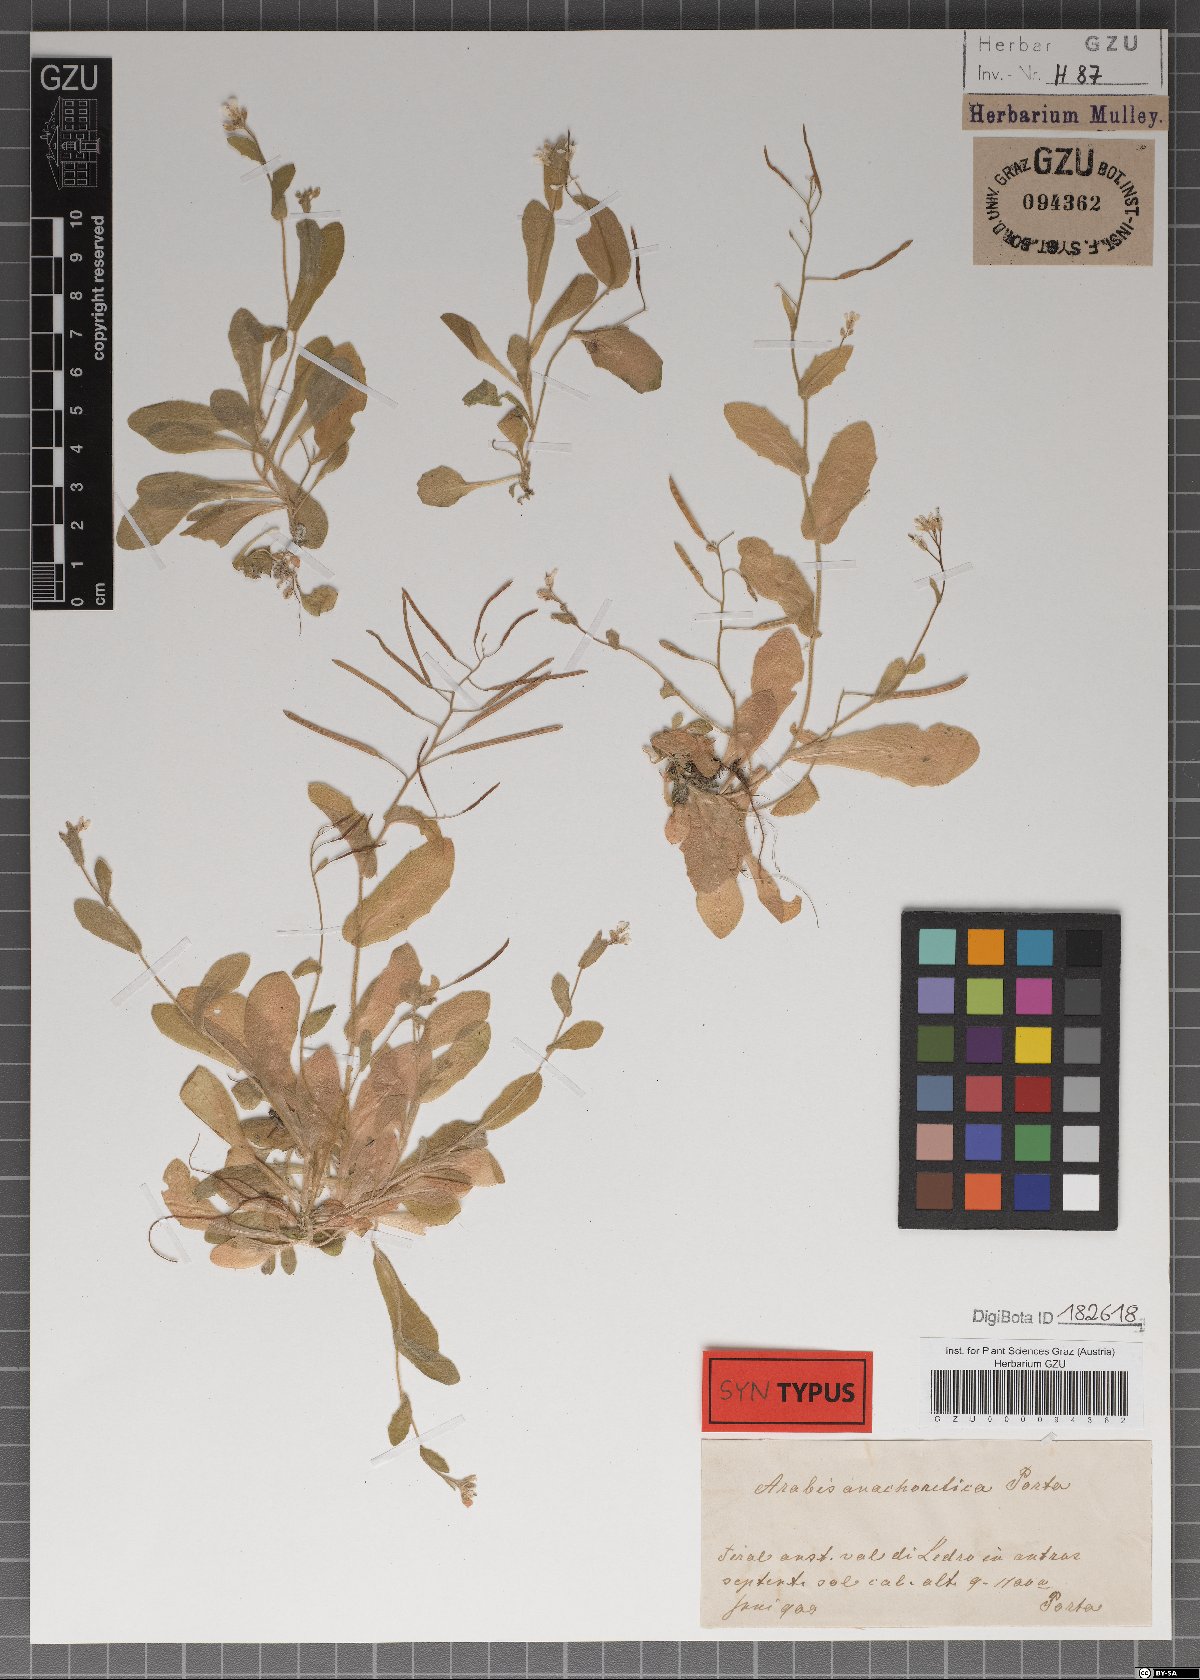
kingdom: Plantae
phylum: Tracheophyta
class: Magnoliopsida
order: Brassicales
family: Brassicaceae
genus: Arabis
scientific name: Arabis anachoretica
